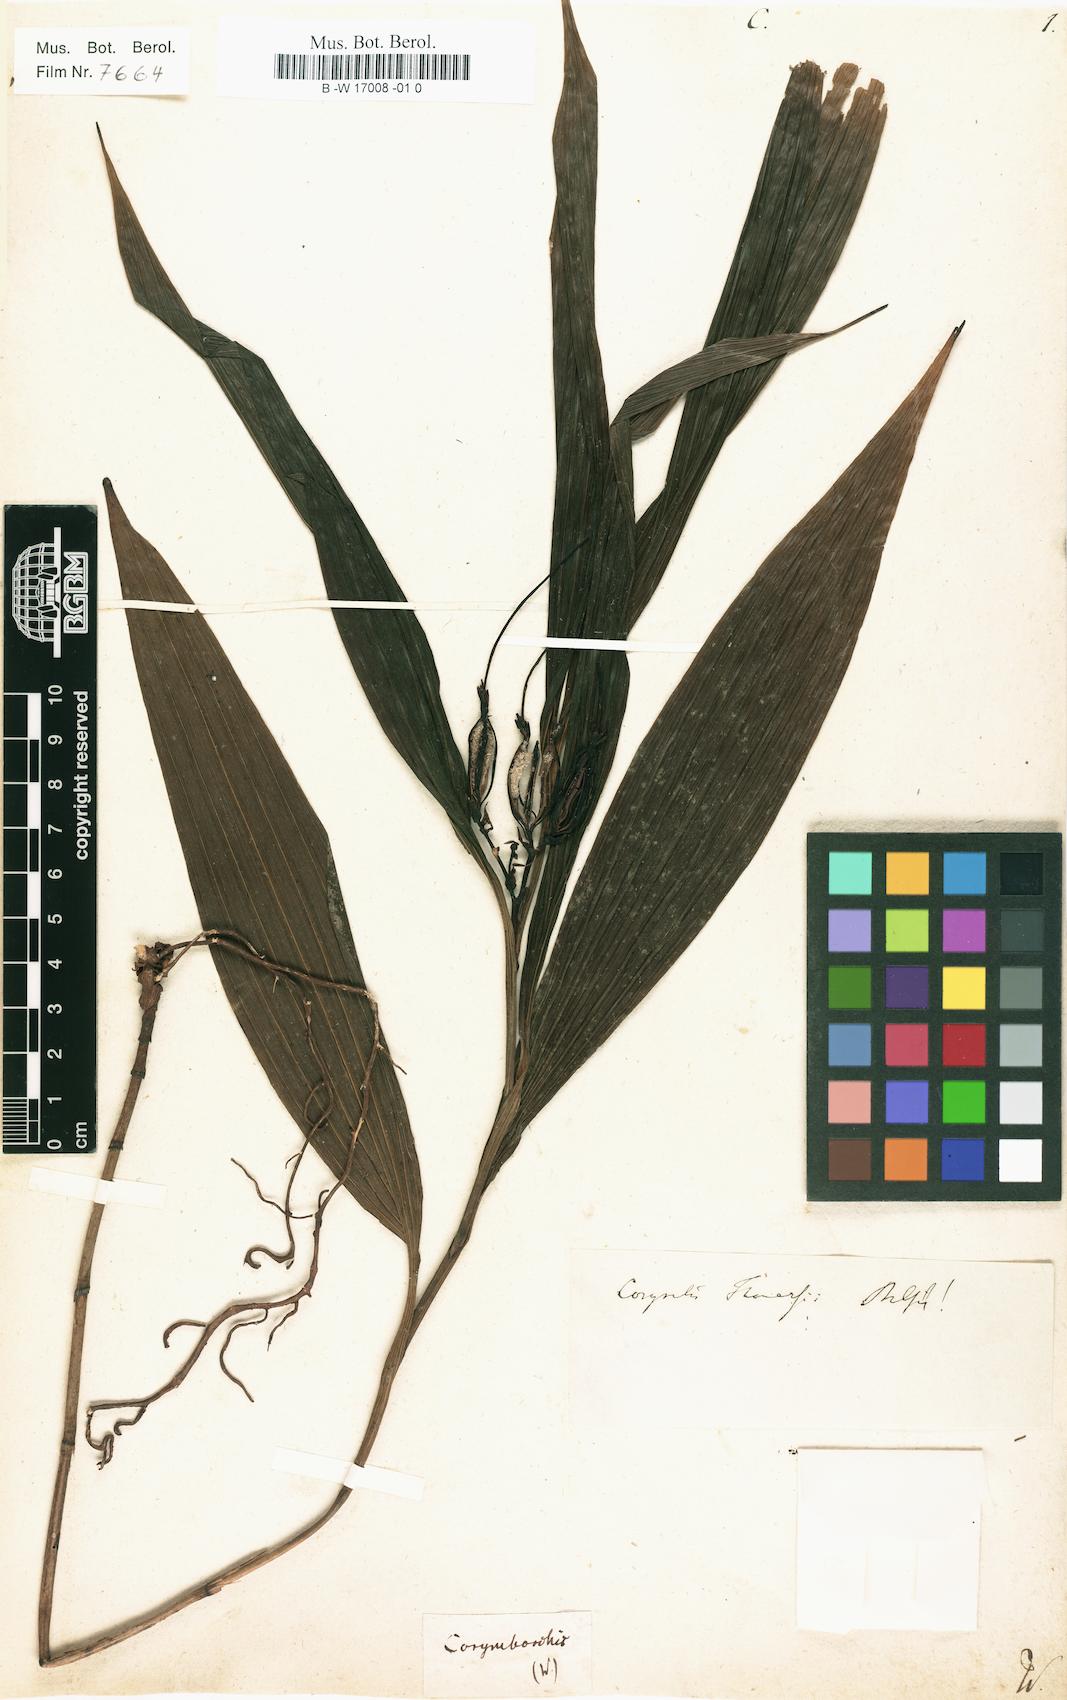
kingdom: Plantae
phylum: Tracheophyta
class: Liliopsida
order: Asparagales
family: Orchidaceae
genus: Corymborkis
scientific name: Corymborkis
